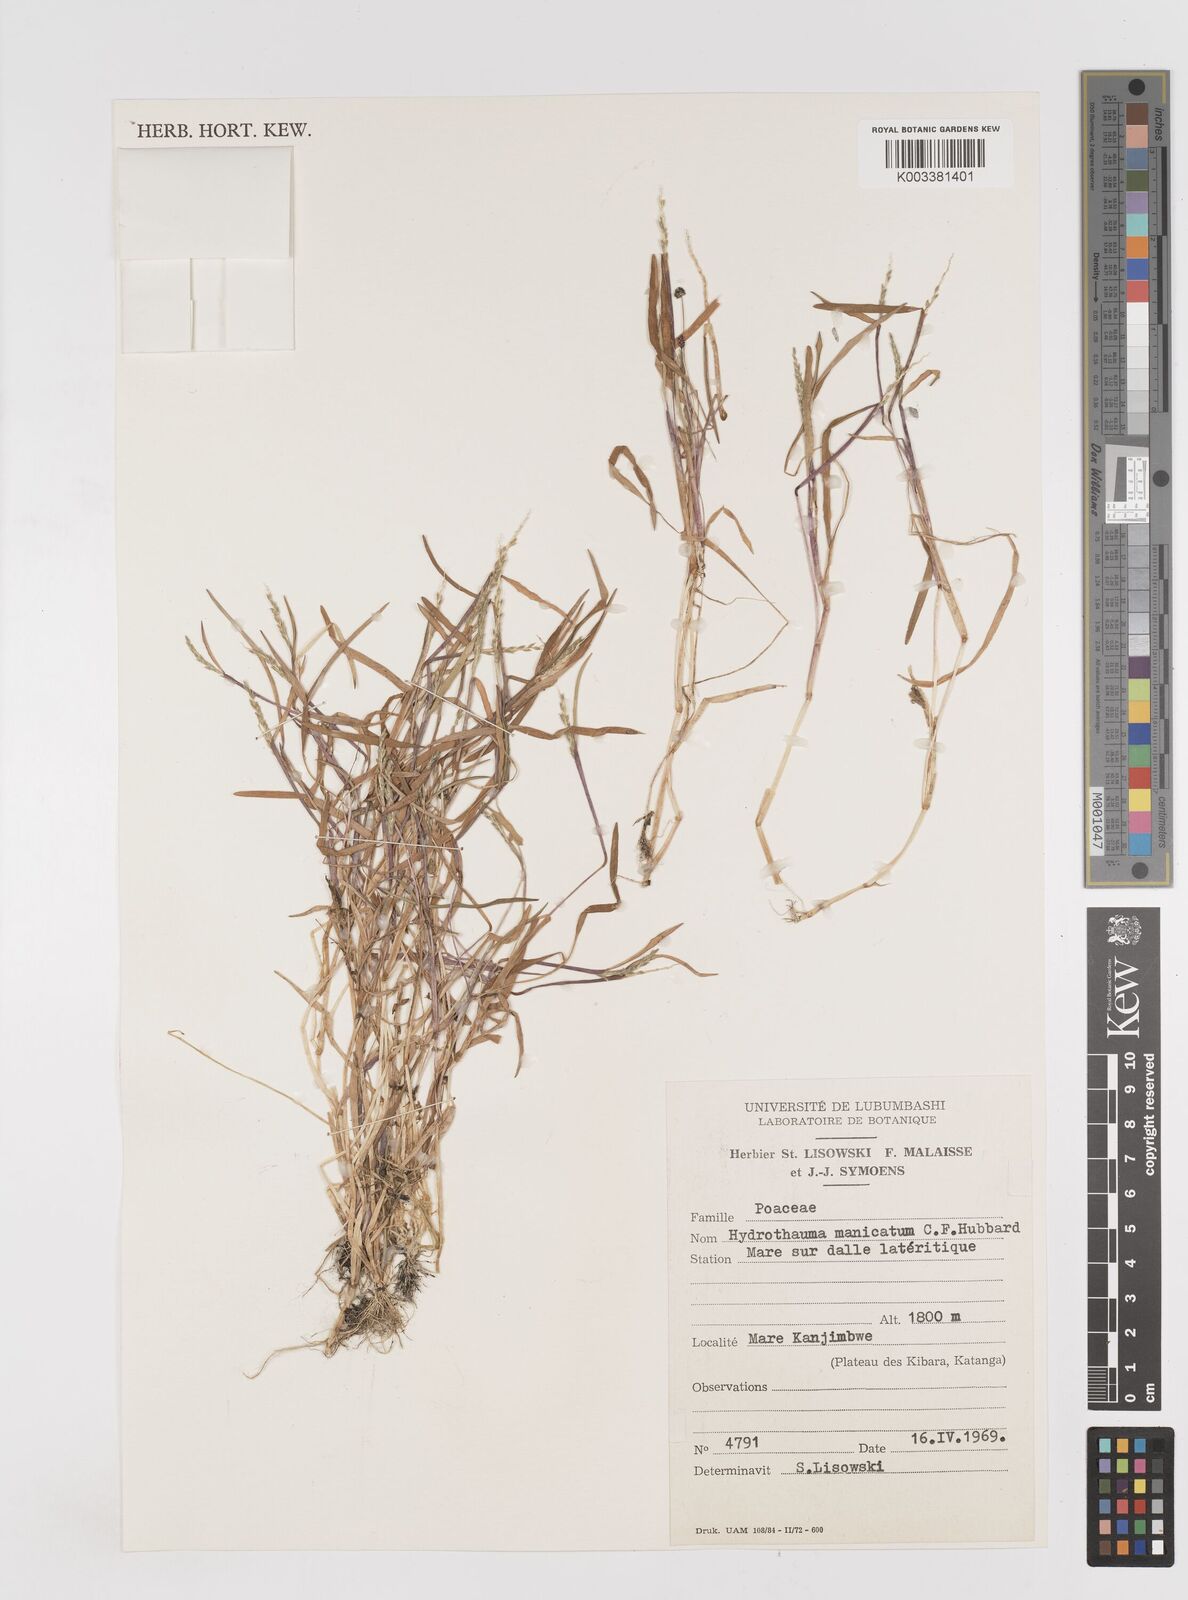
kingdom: Plantae
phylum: Tracheophyta
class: Liliopsida
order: Poales
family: Poaceae
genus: Hydrothauma
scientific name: Hydrothauma manicatum
